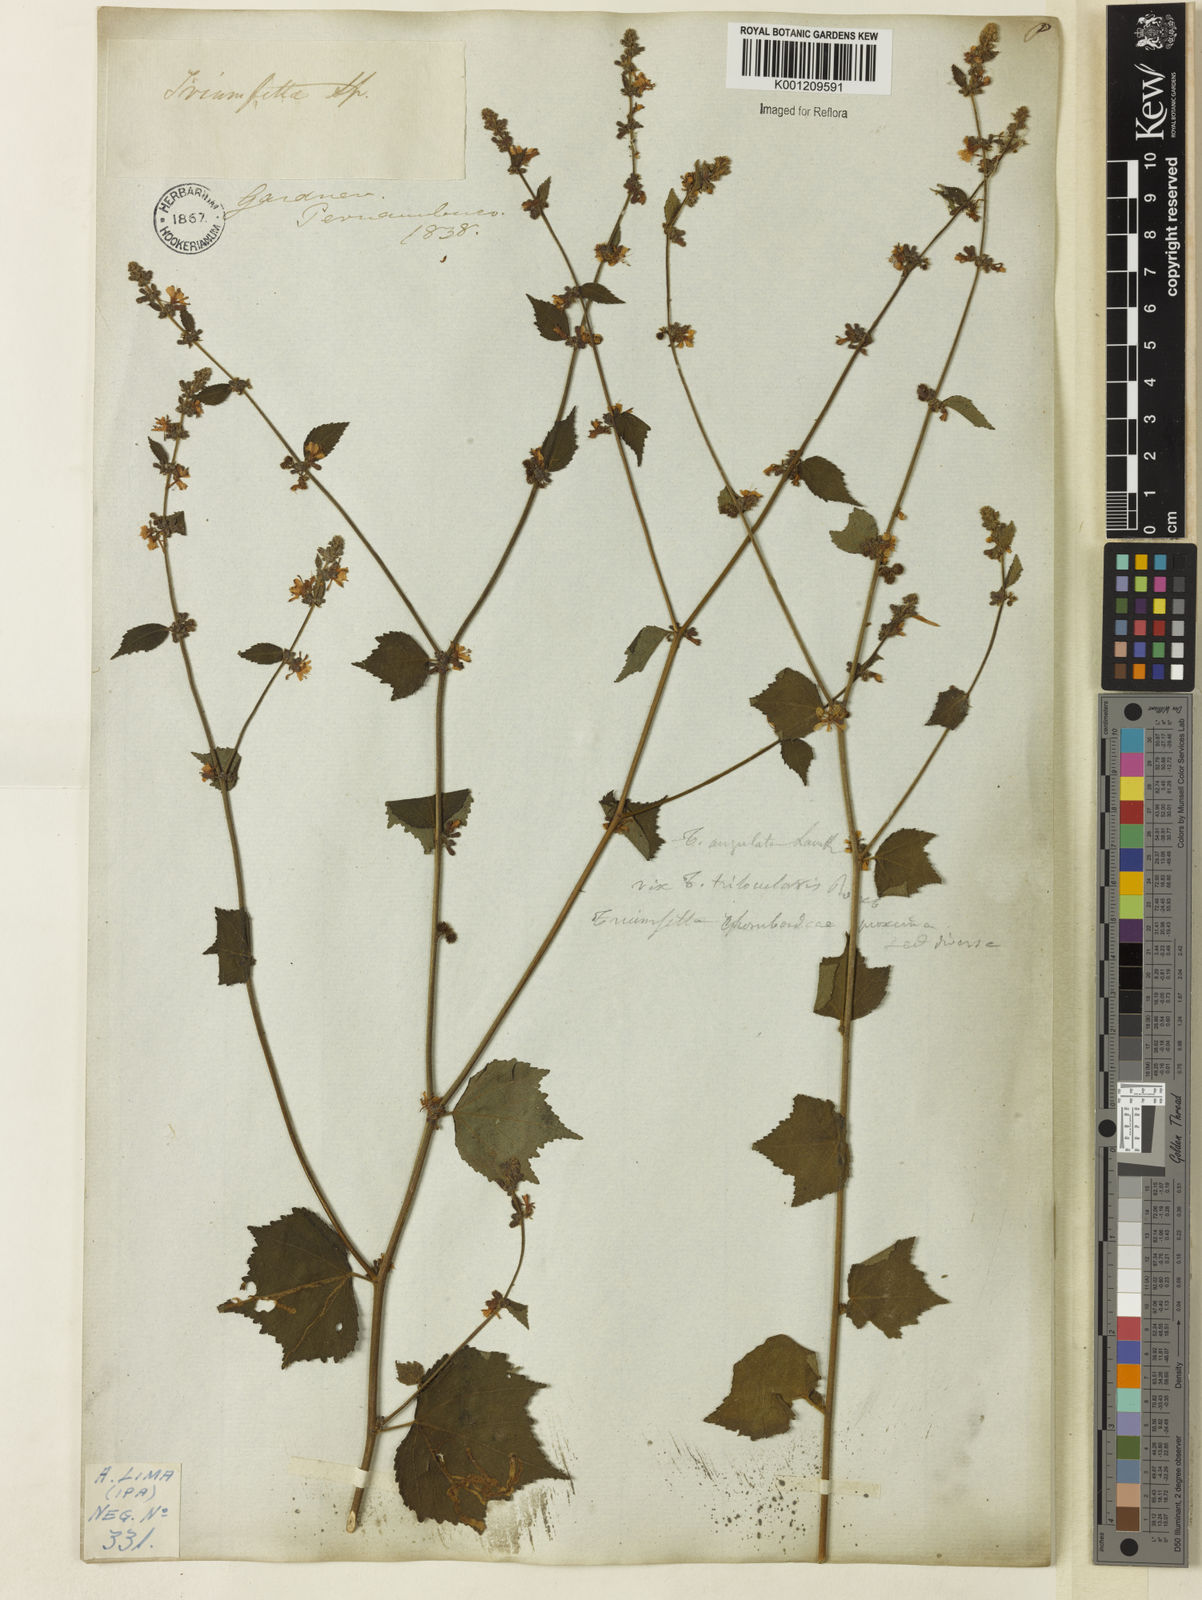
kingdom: Plantae
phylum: Tracheophyta
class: Magnoliopsida
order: Malvales
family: Malvaceae
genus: Triumfetta
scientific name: Triumfetta rhomboidea
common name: Diamond burbark
